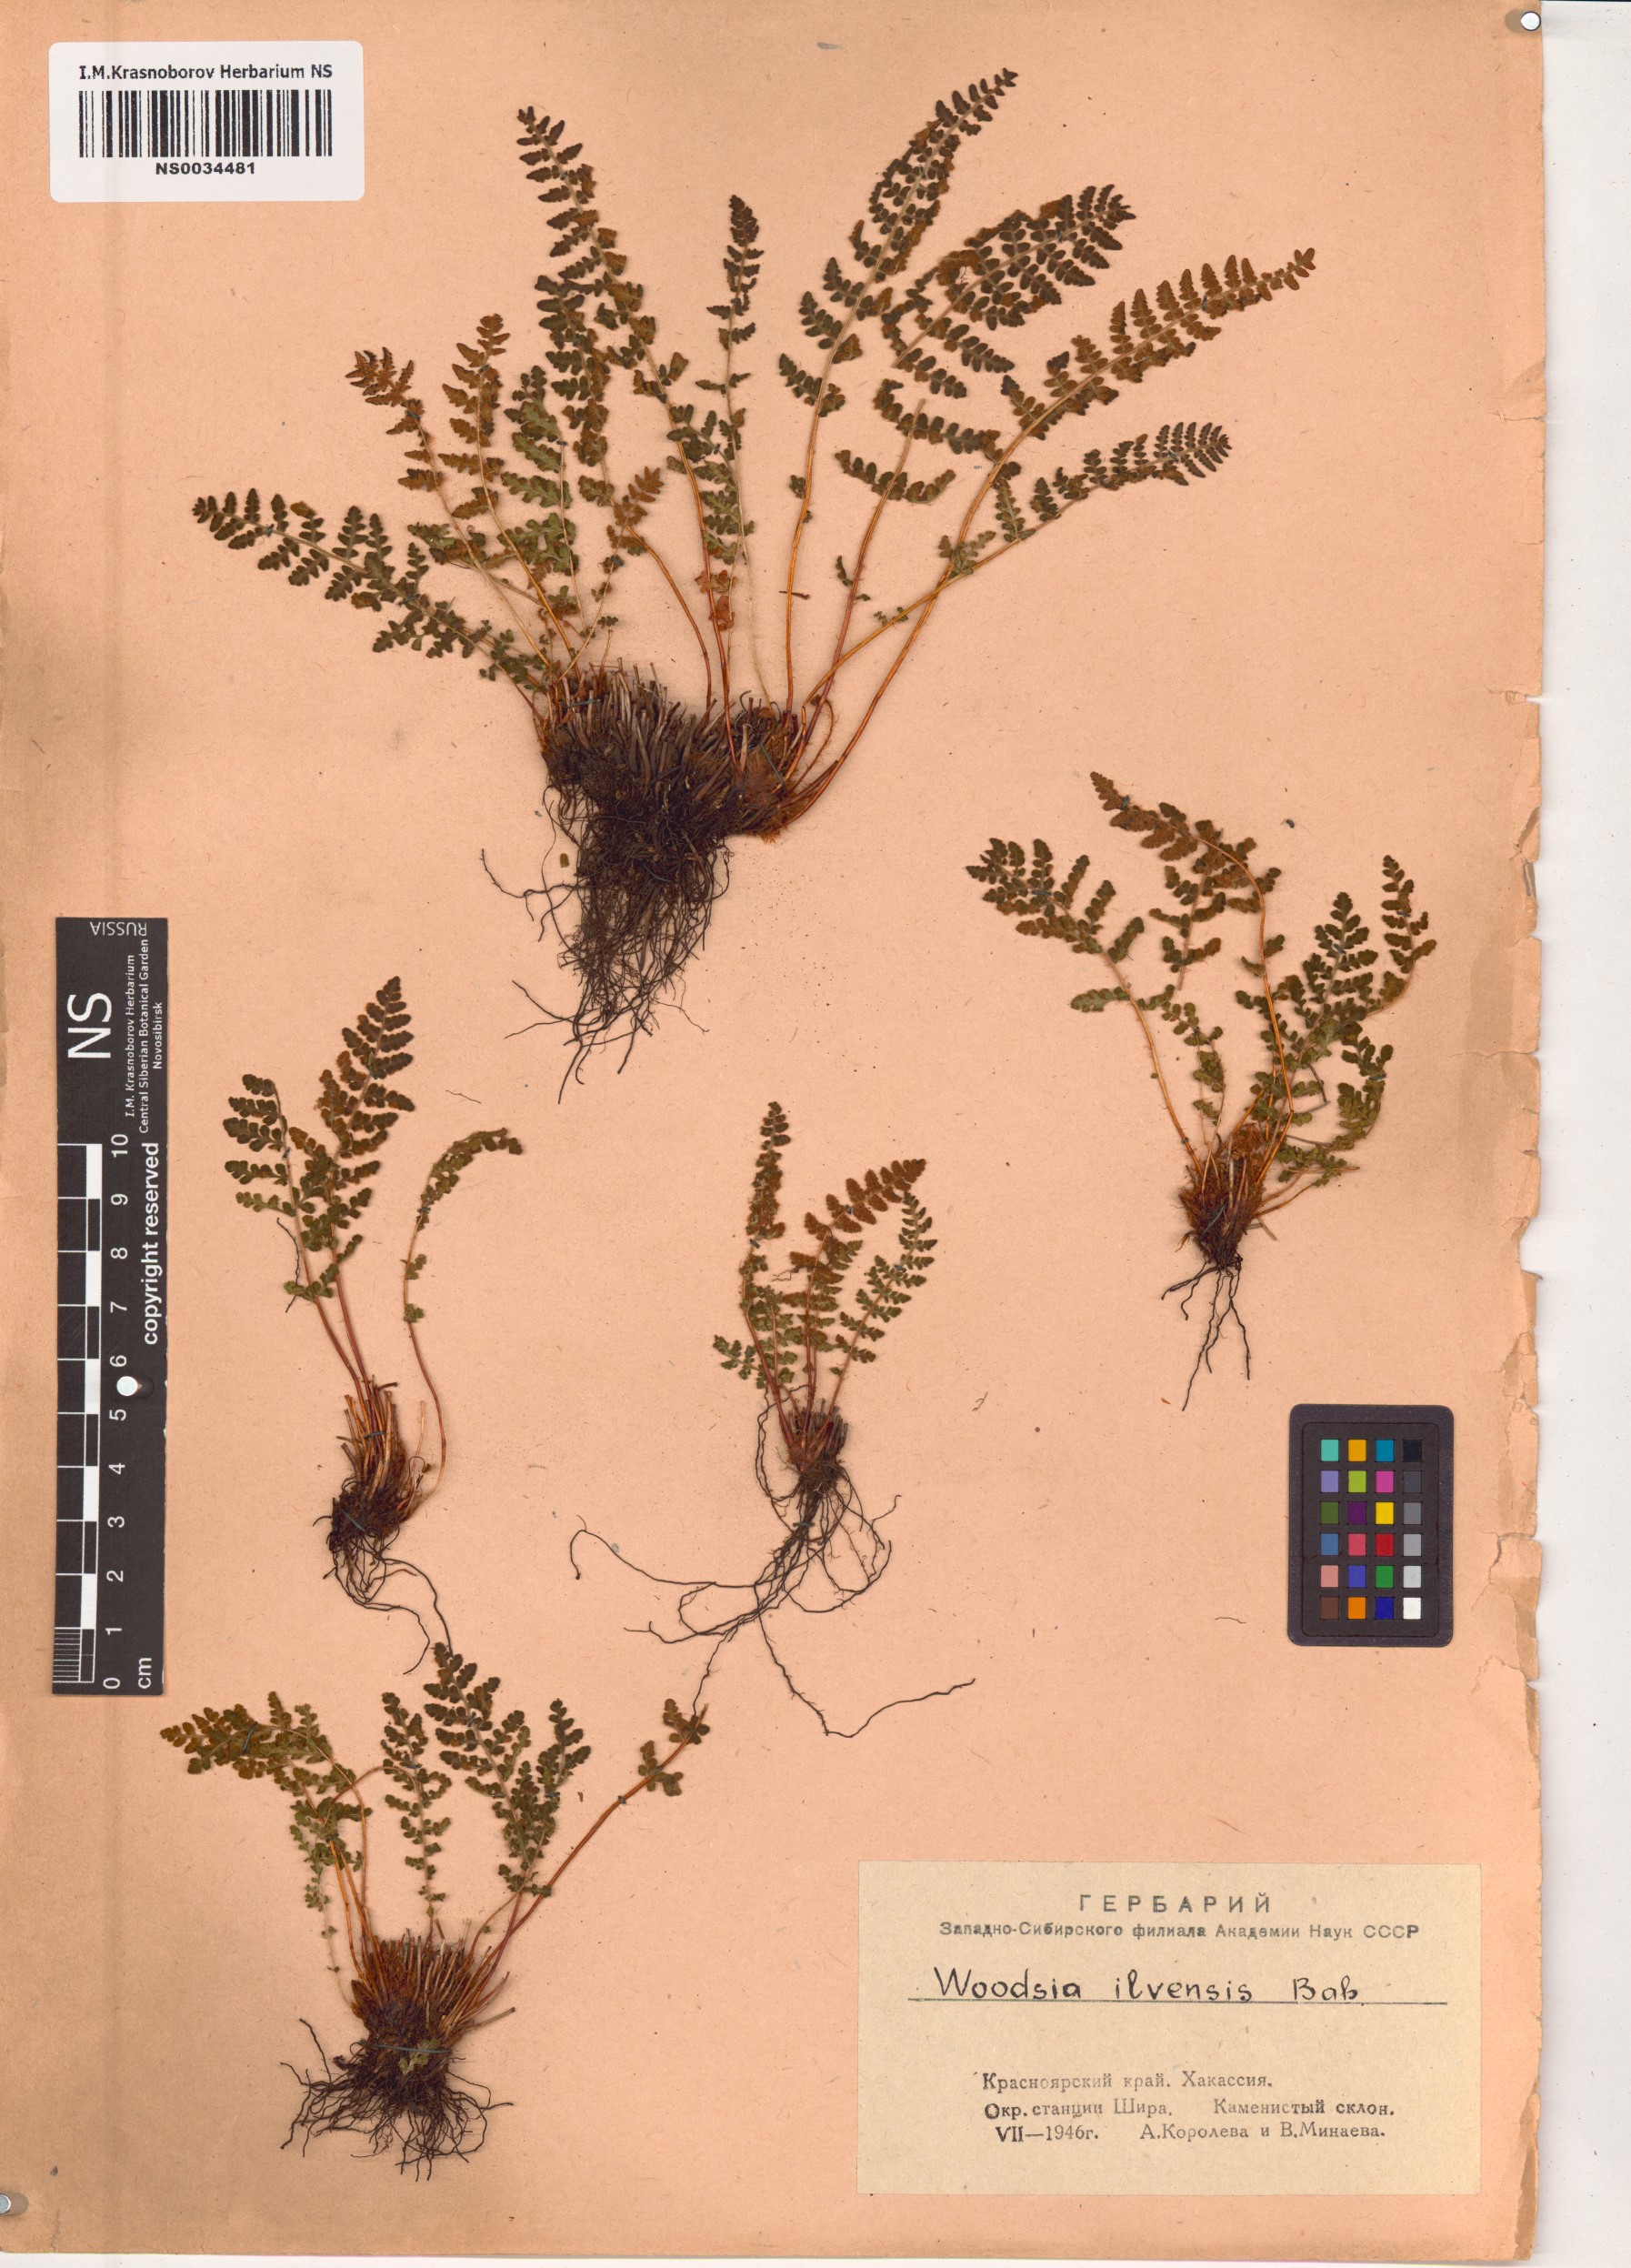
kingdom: Plantae
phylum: Tracheophyta
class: Polypodiopsida
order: Polypodiales
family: Woodsiaceae
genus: Woodsia
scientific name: Woodsia ilvensis
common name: Fragrant woodsia
